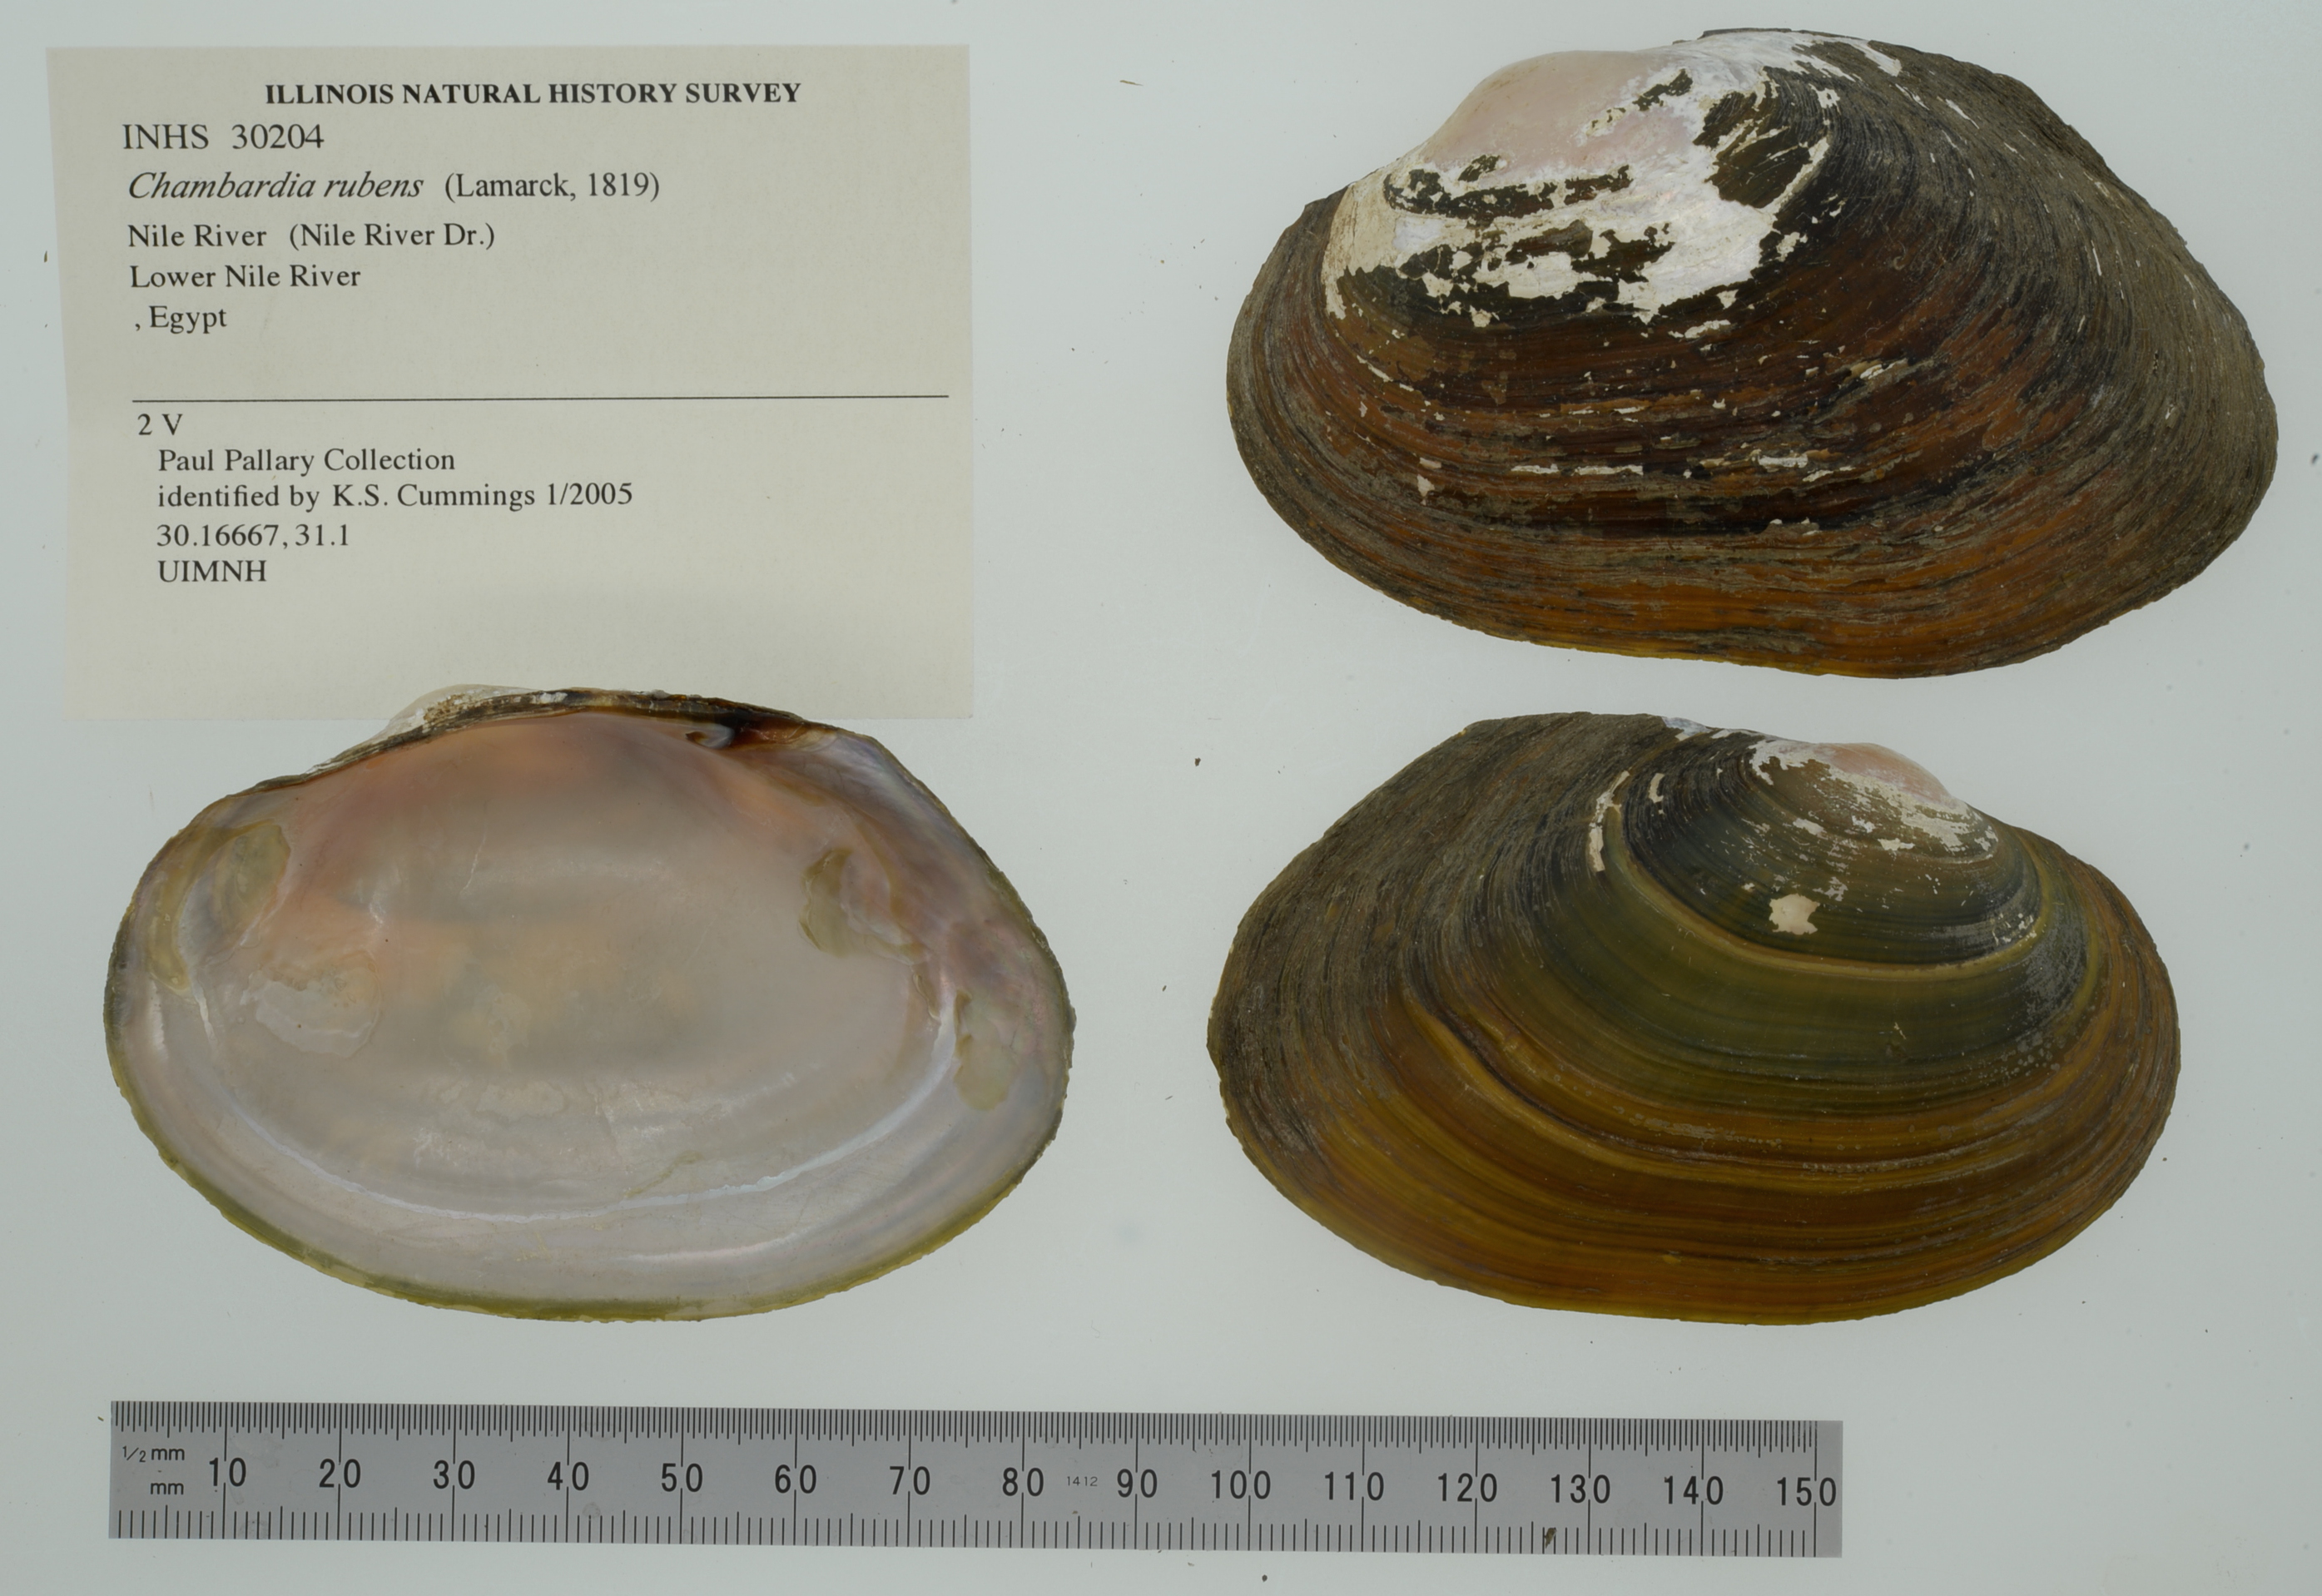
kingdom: Animalia
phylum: Mollusca
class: Bivalvia
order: Unionida
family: Iridinidae
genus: Chambardia
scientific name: Chambardia rubens
